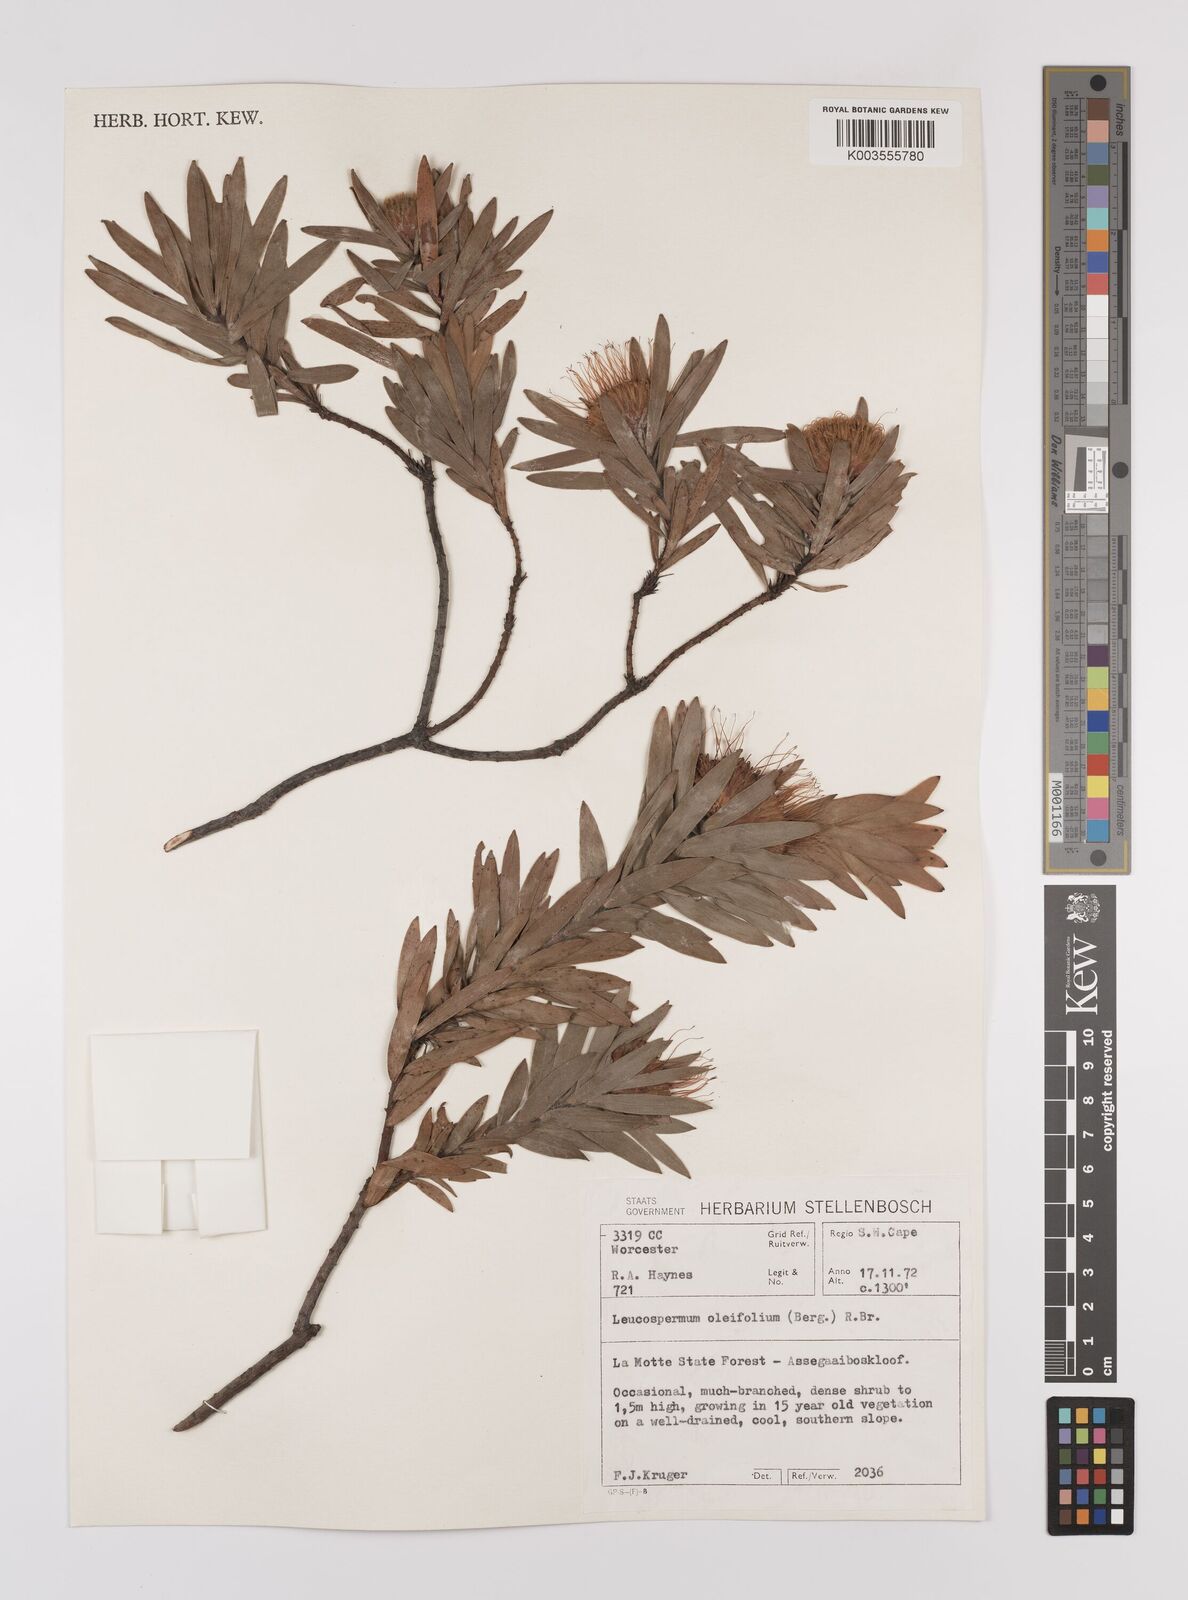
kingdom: Plantae
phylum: Tracheophyta
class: Magnoliopsida
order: Proteales
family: Proteaceae
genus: Leucospermum
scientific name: Leucospermum oleifolium
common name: Matches
